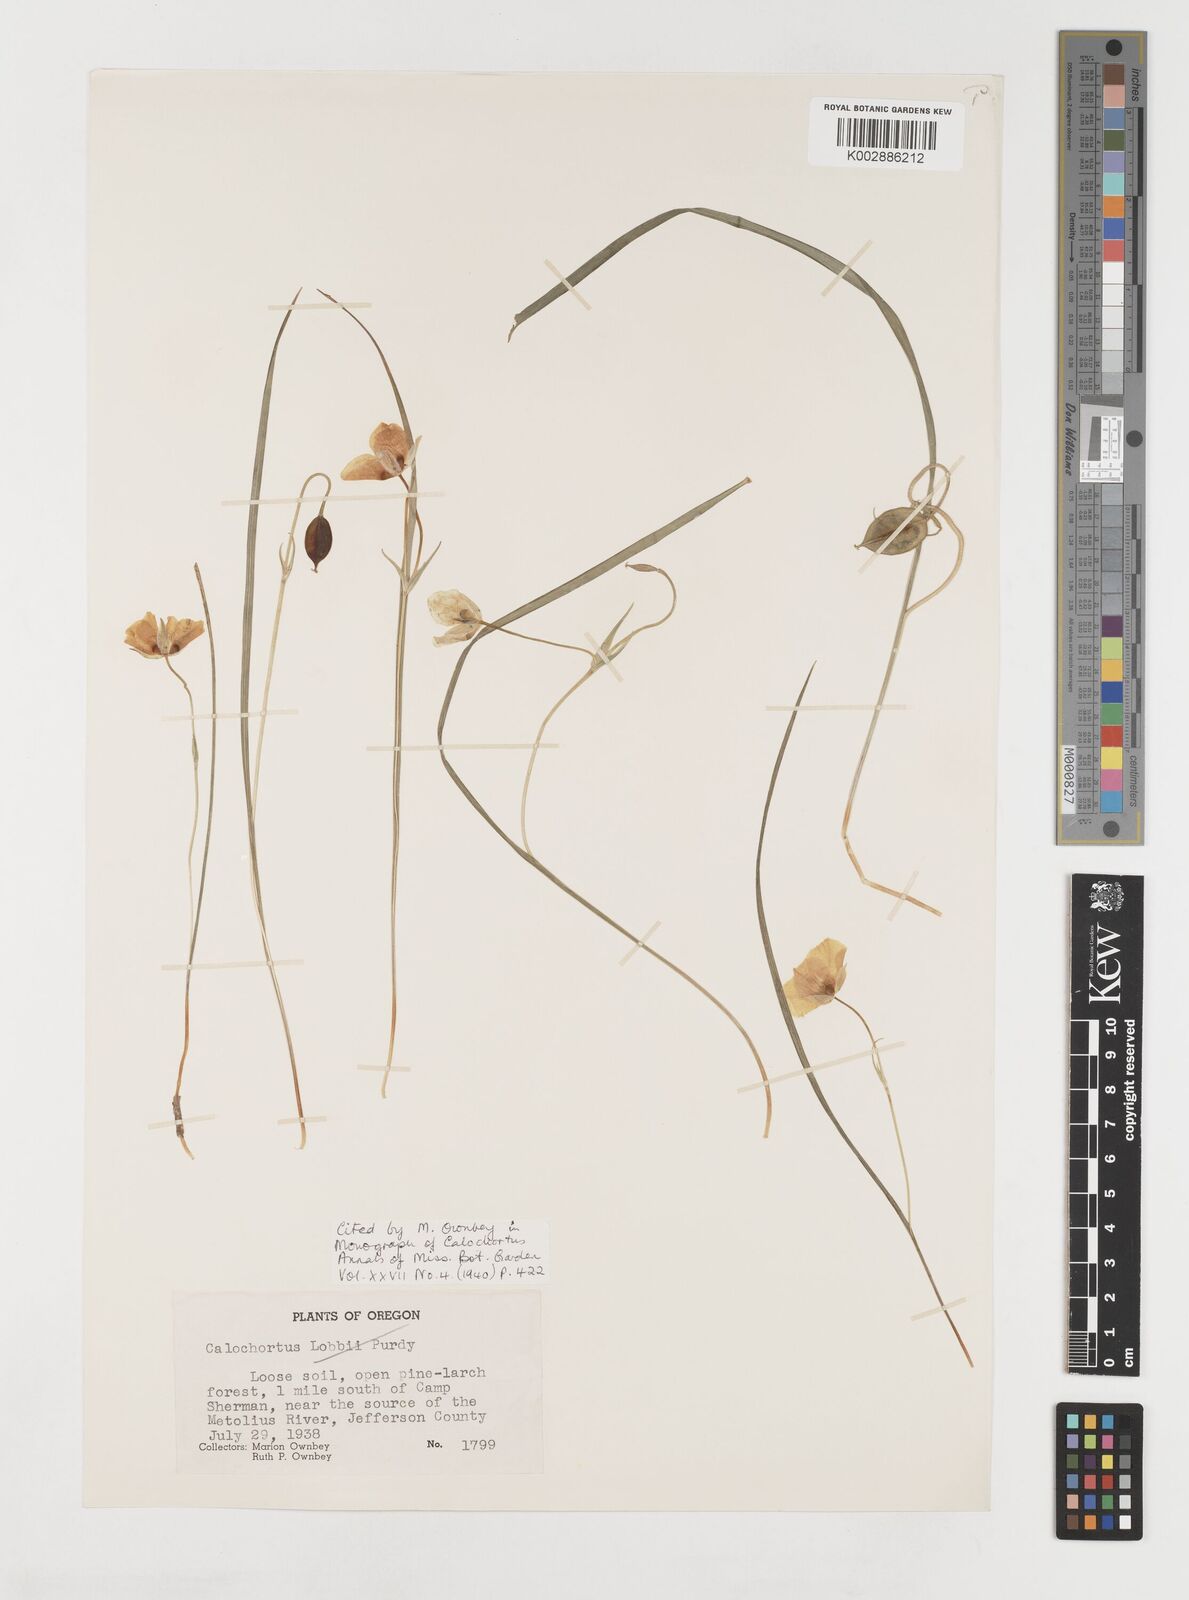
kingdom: Plantae
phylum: Tracheophyta
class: Liliopsida
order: Liliales
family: Liliaceae
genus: Calochortus
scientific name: Calochortus subalpinus
